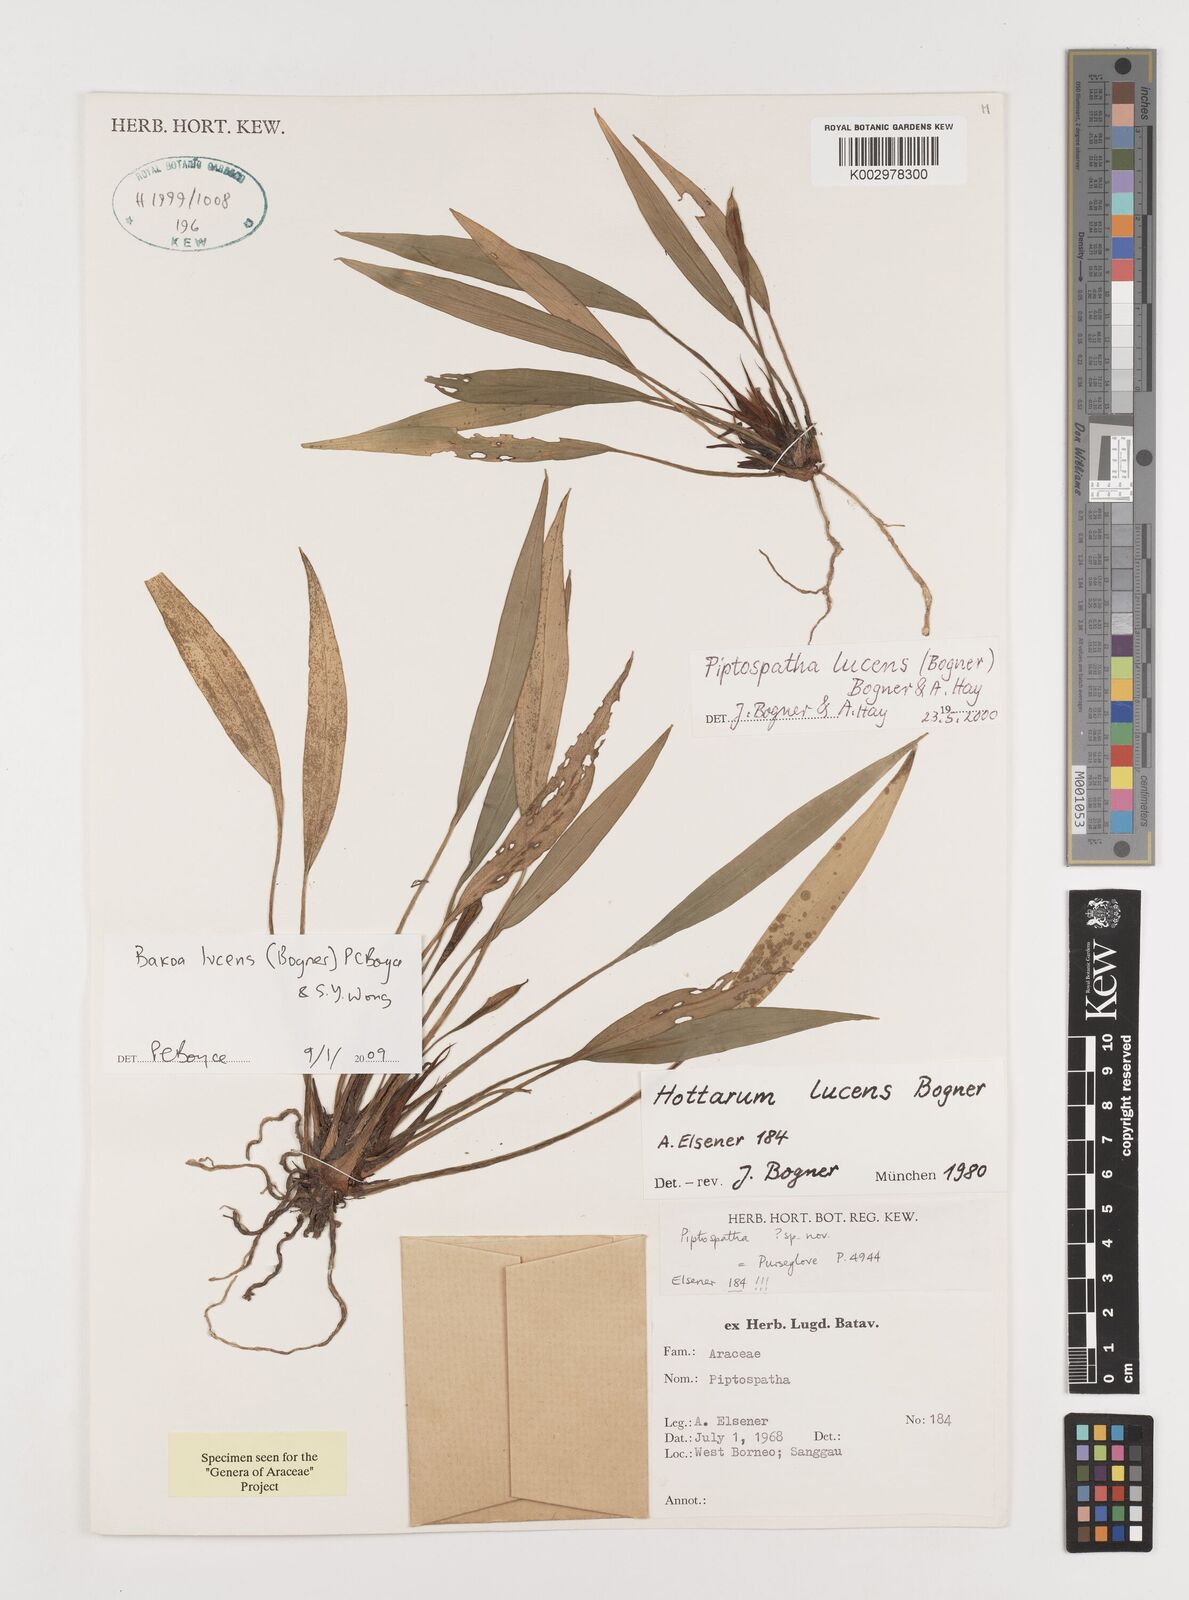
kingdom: Plantae
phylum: Tracheophyta
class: Liliopsida
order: Alismatales
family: Araceae
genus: Bakoa
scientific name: Bakoa lucens
